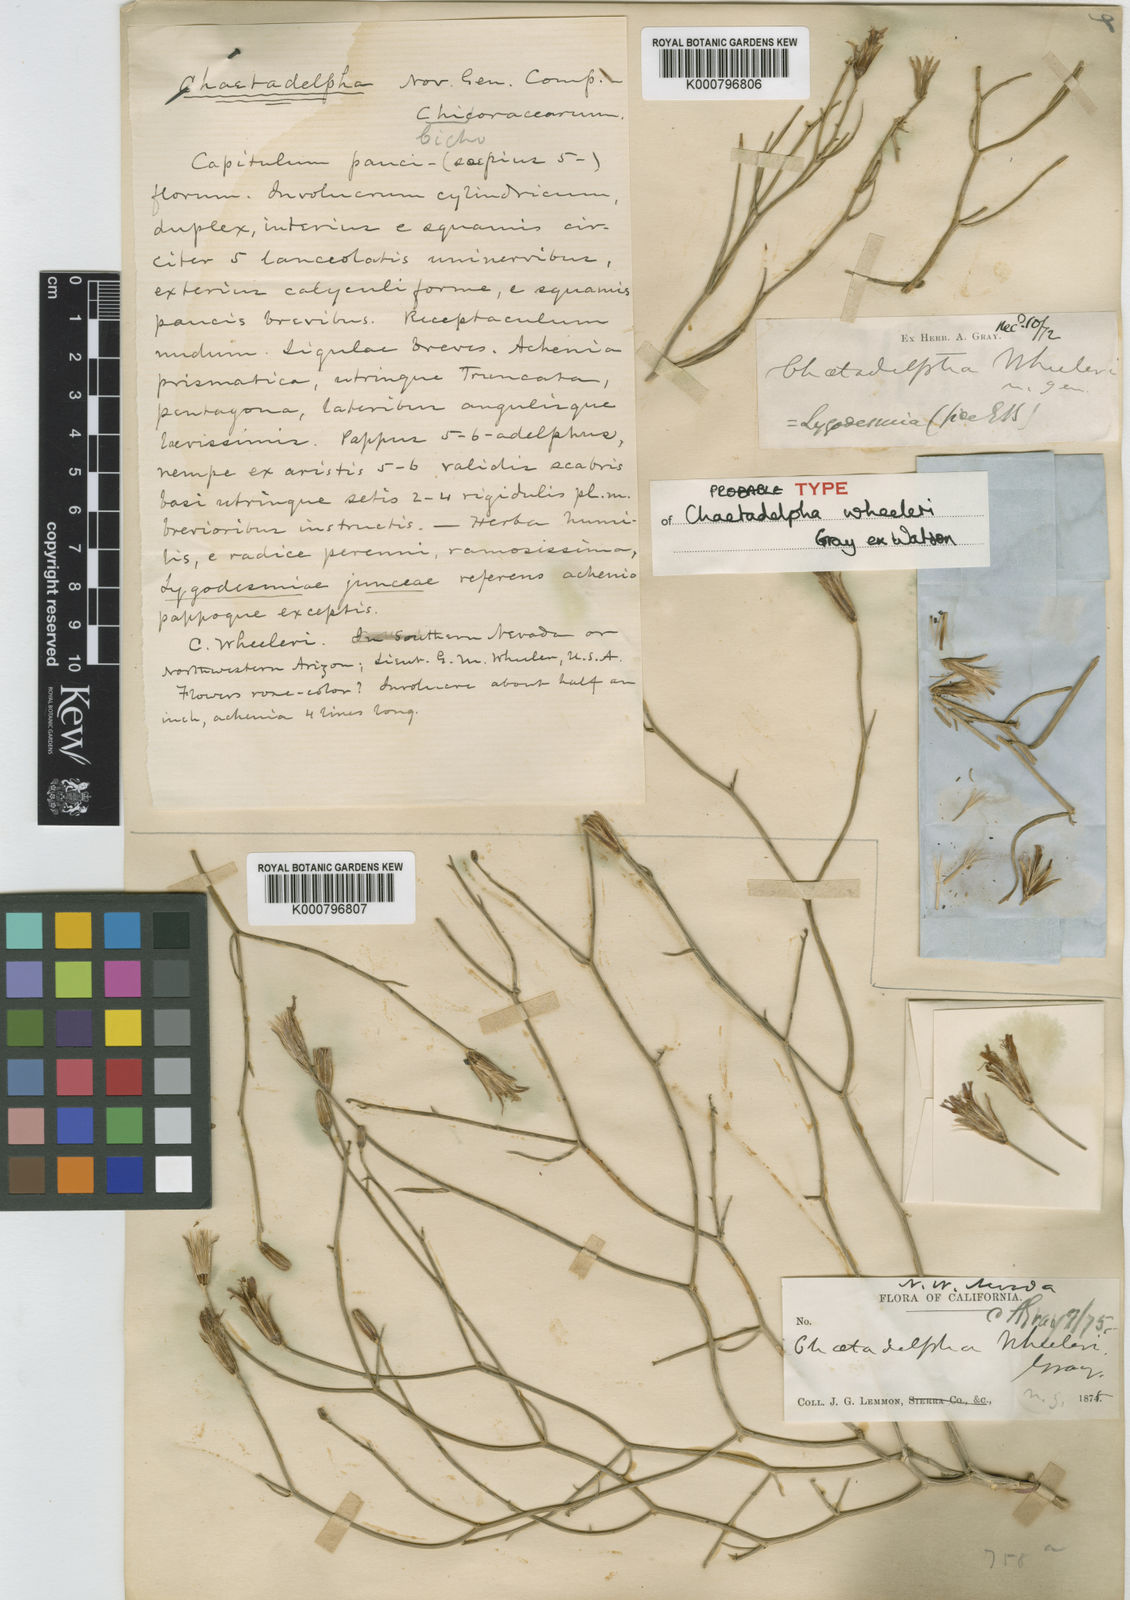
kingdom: Plantae
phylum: Tracheophyta
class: Magnoliopsida
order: Asterales
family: Asteraceae
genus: Chaetadelpha
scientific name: Chaetadelpha wheeleri
